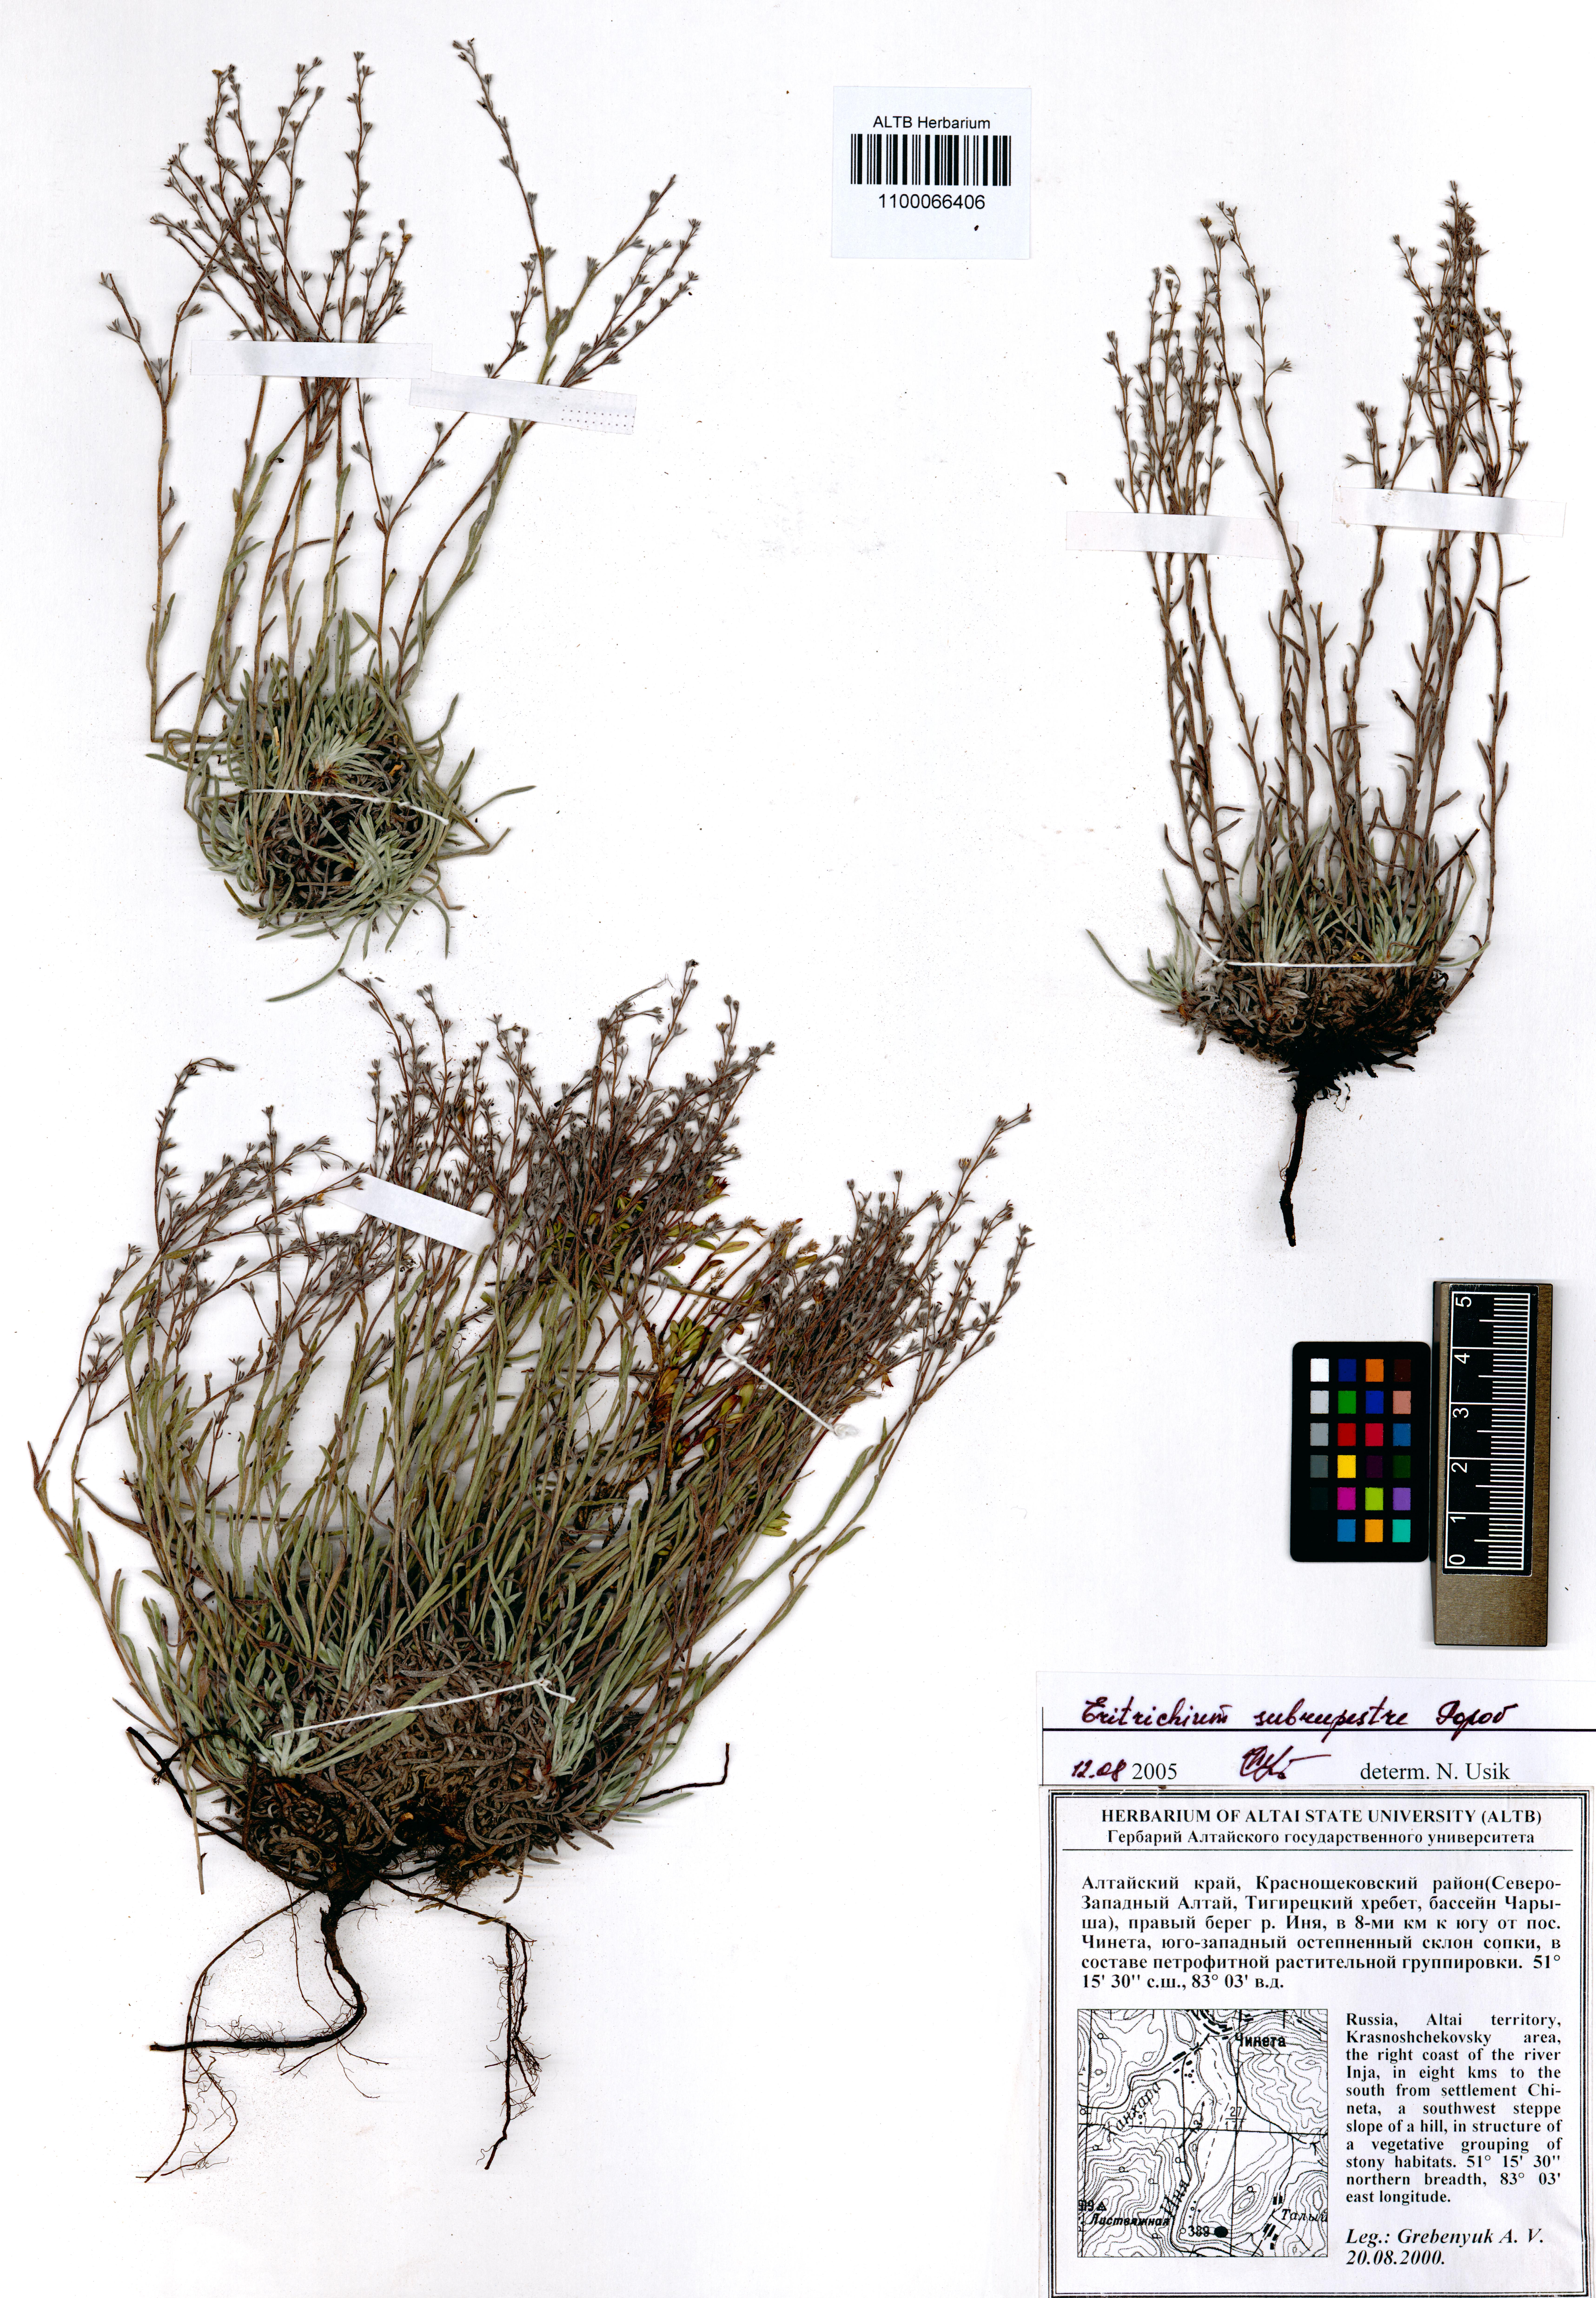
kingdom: Plantae
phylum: Tracheophyta
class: Magnoliopsida
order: Boraginales
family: Boraginaceae
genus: Eritrichium
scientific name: Eritrichium pauciflorum
